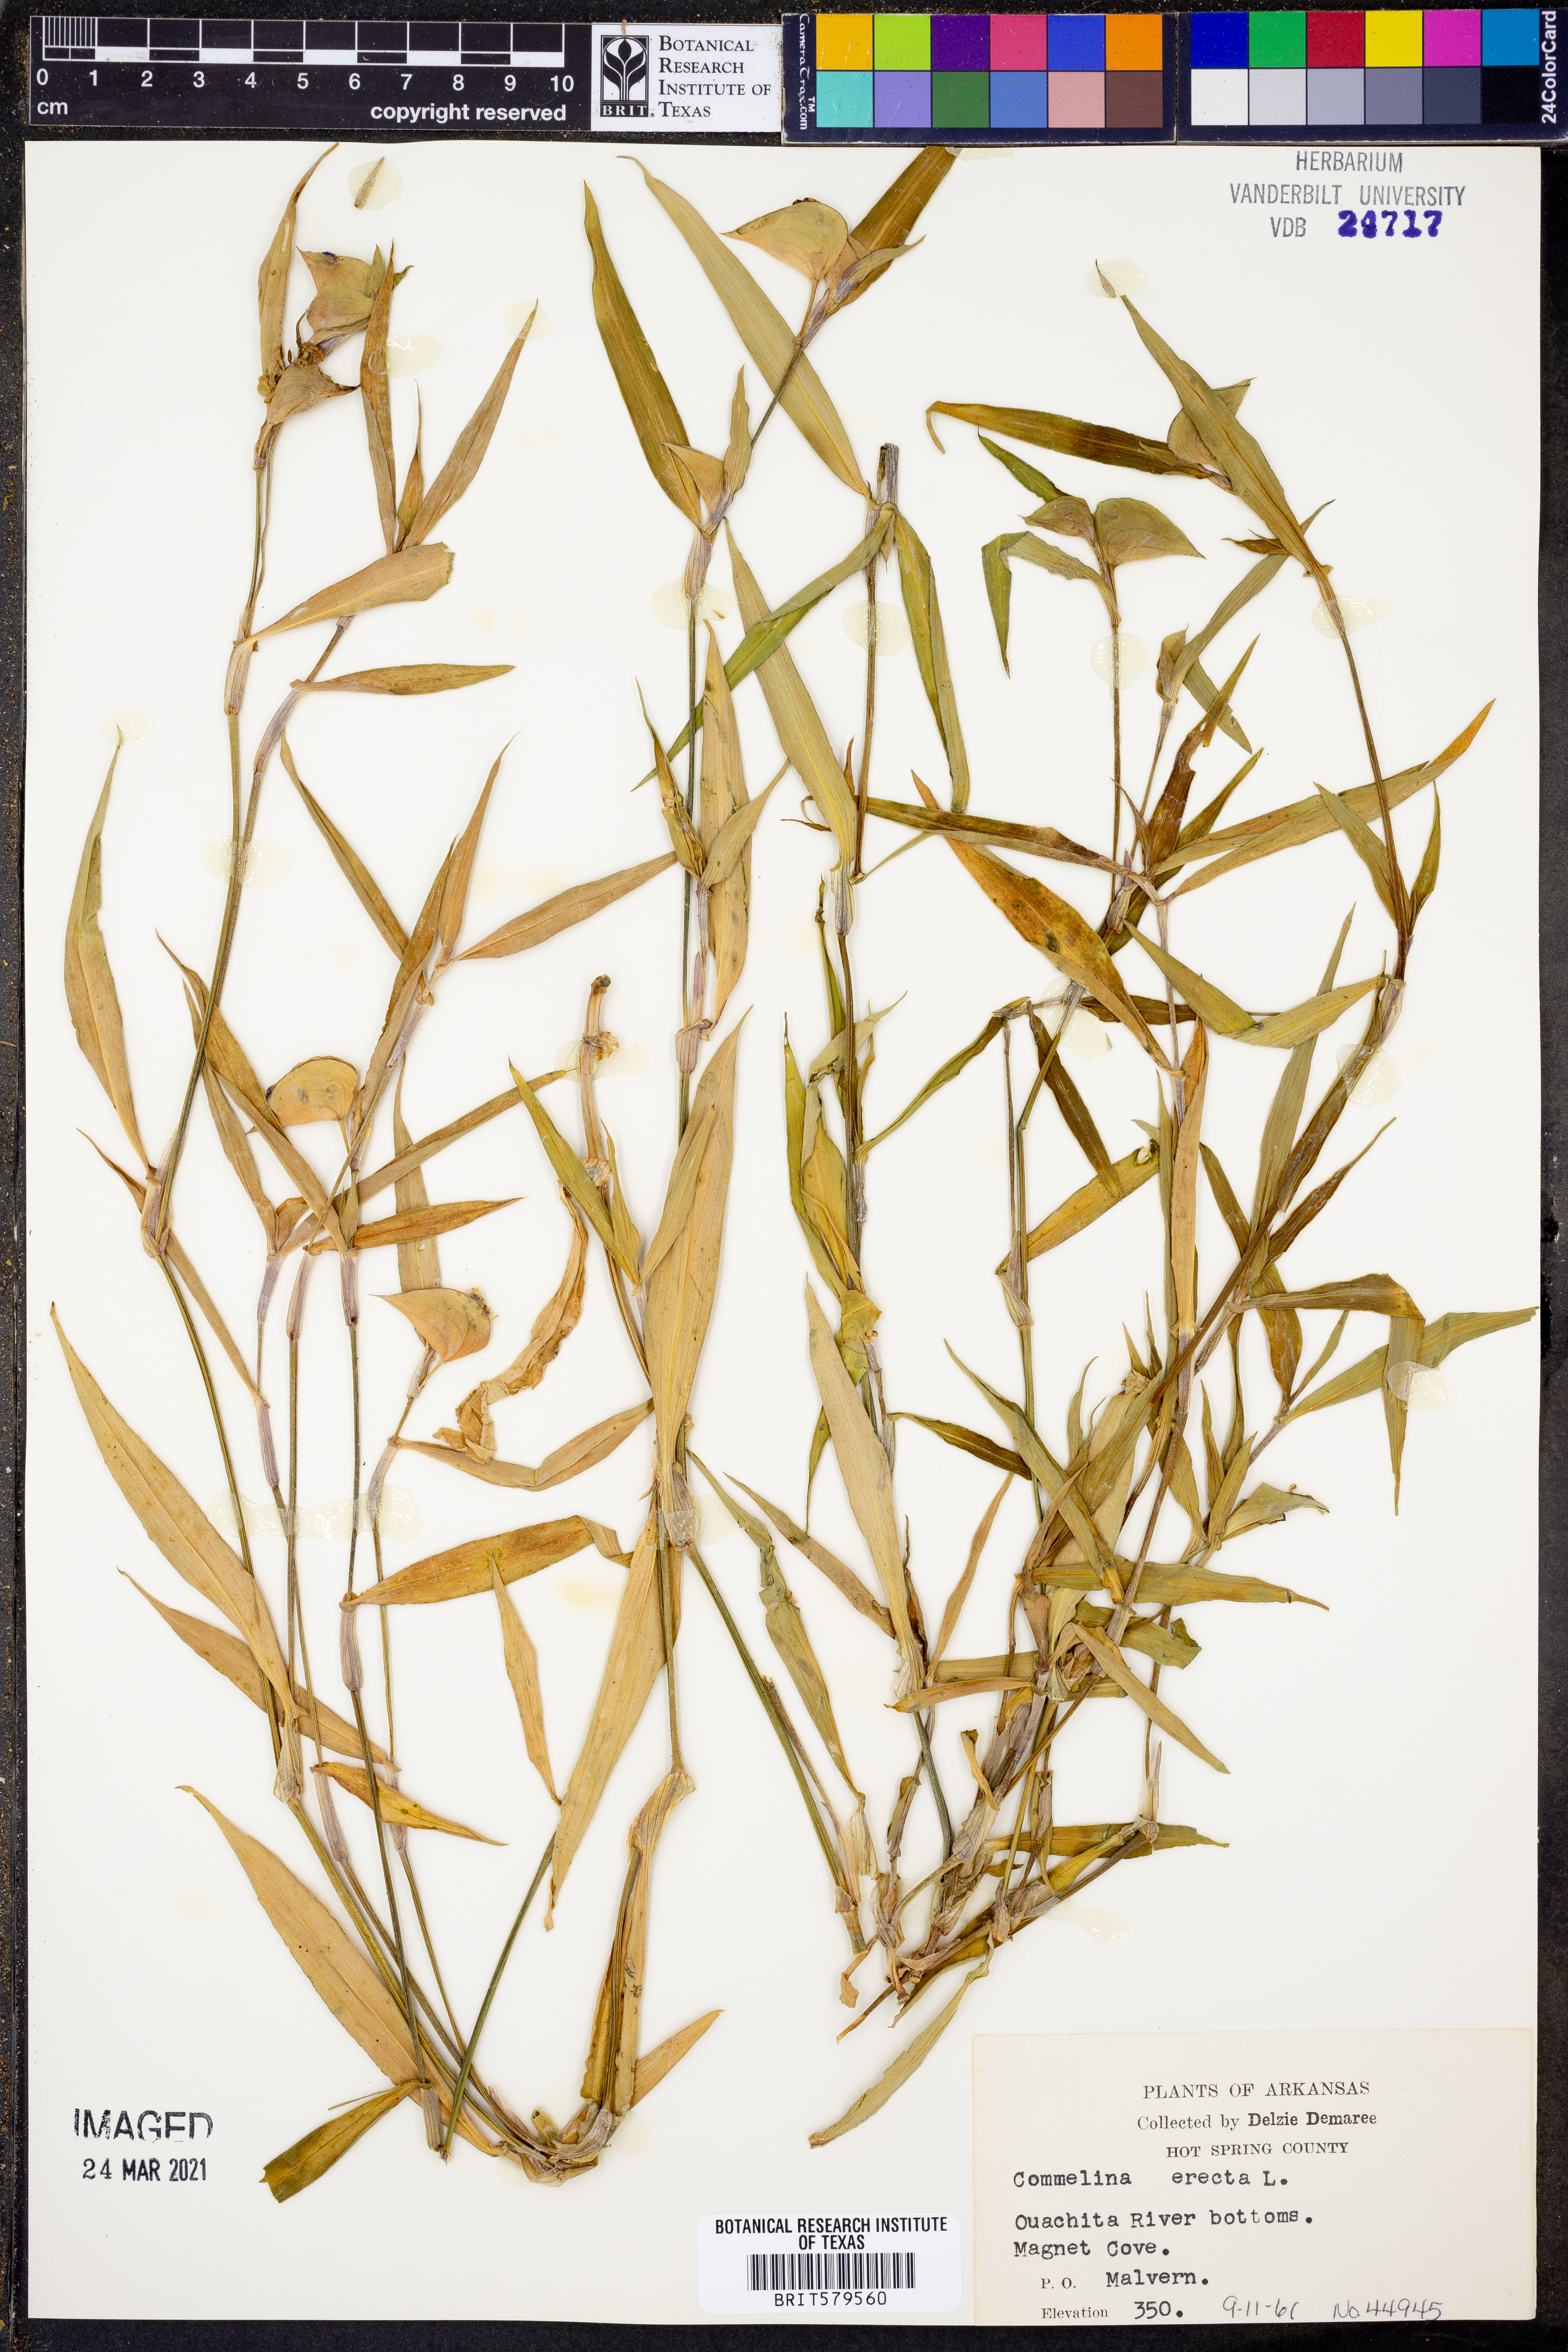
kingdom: Plantae
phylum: Tracheophyta
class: Liliopsida
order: Commelinales
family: Commelinaceae
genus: Commelina
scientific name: Commelina erecta
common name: Blousel blommetjie
